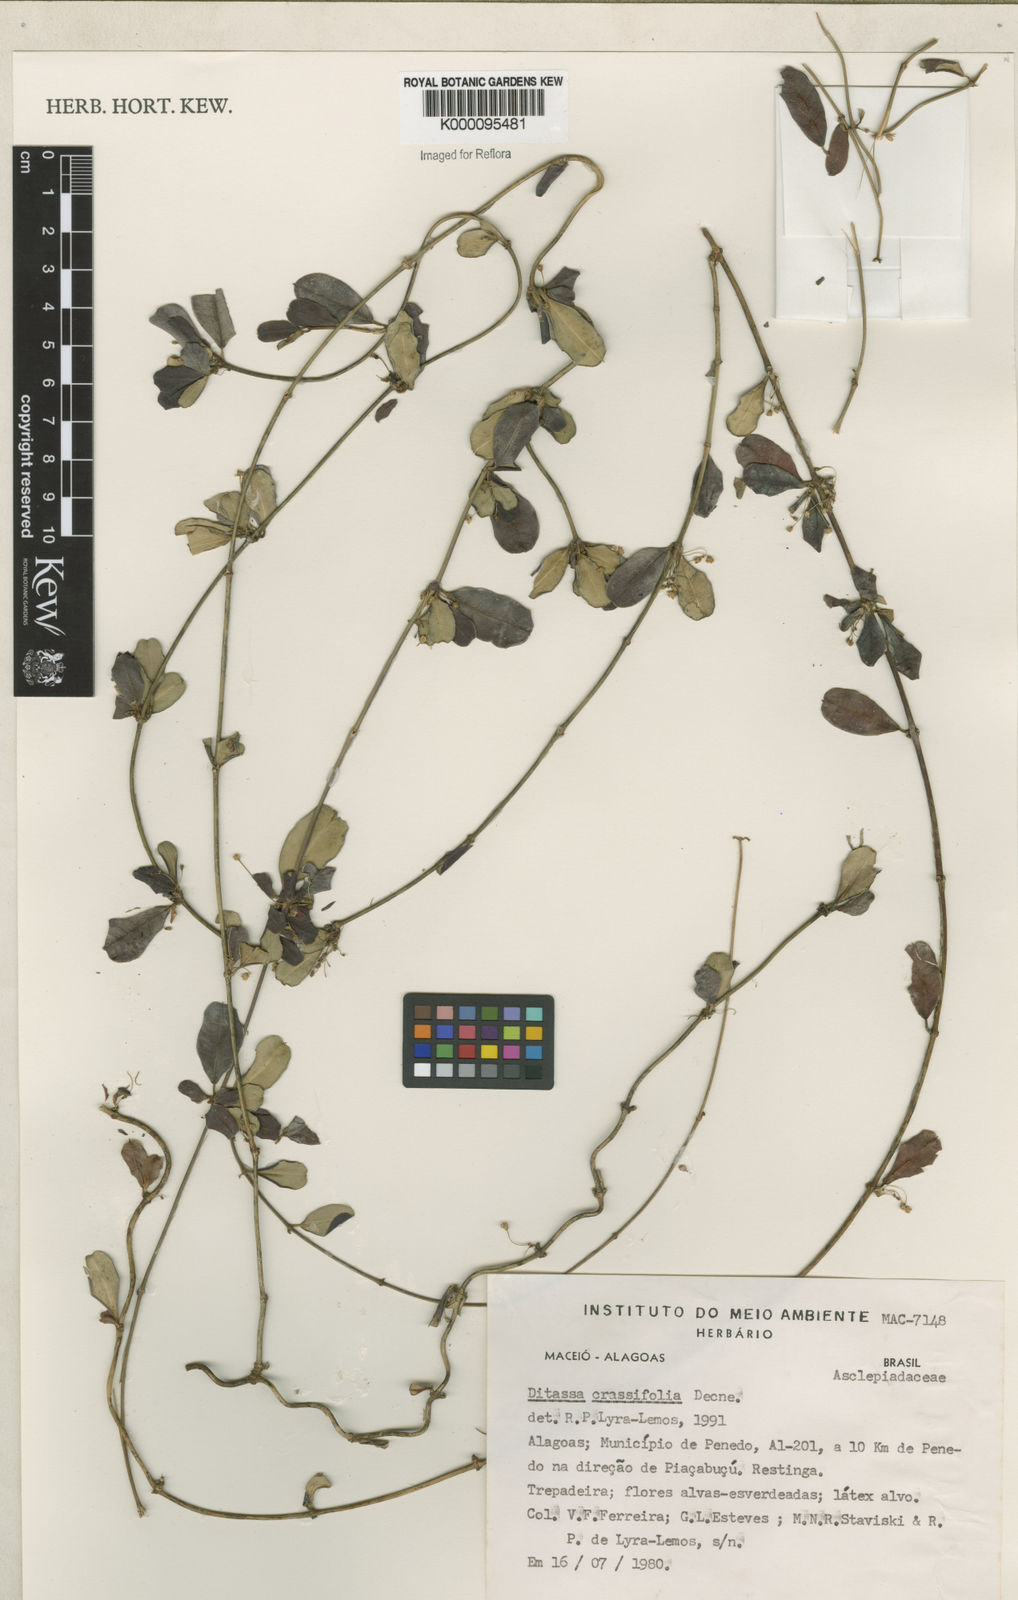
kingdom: Plantae
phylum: Tracheophyta
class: Magnoliopsida
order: Gentianales
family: Apocynaceae
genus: Ditassa
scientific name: Ditassa crassifolia
